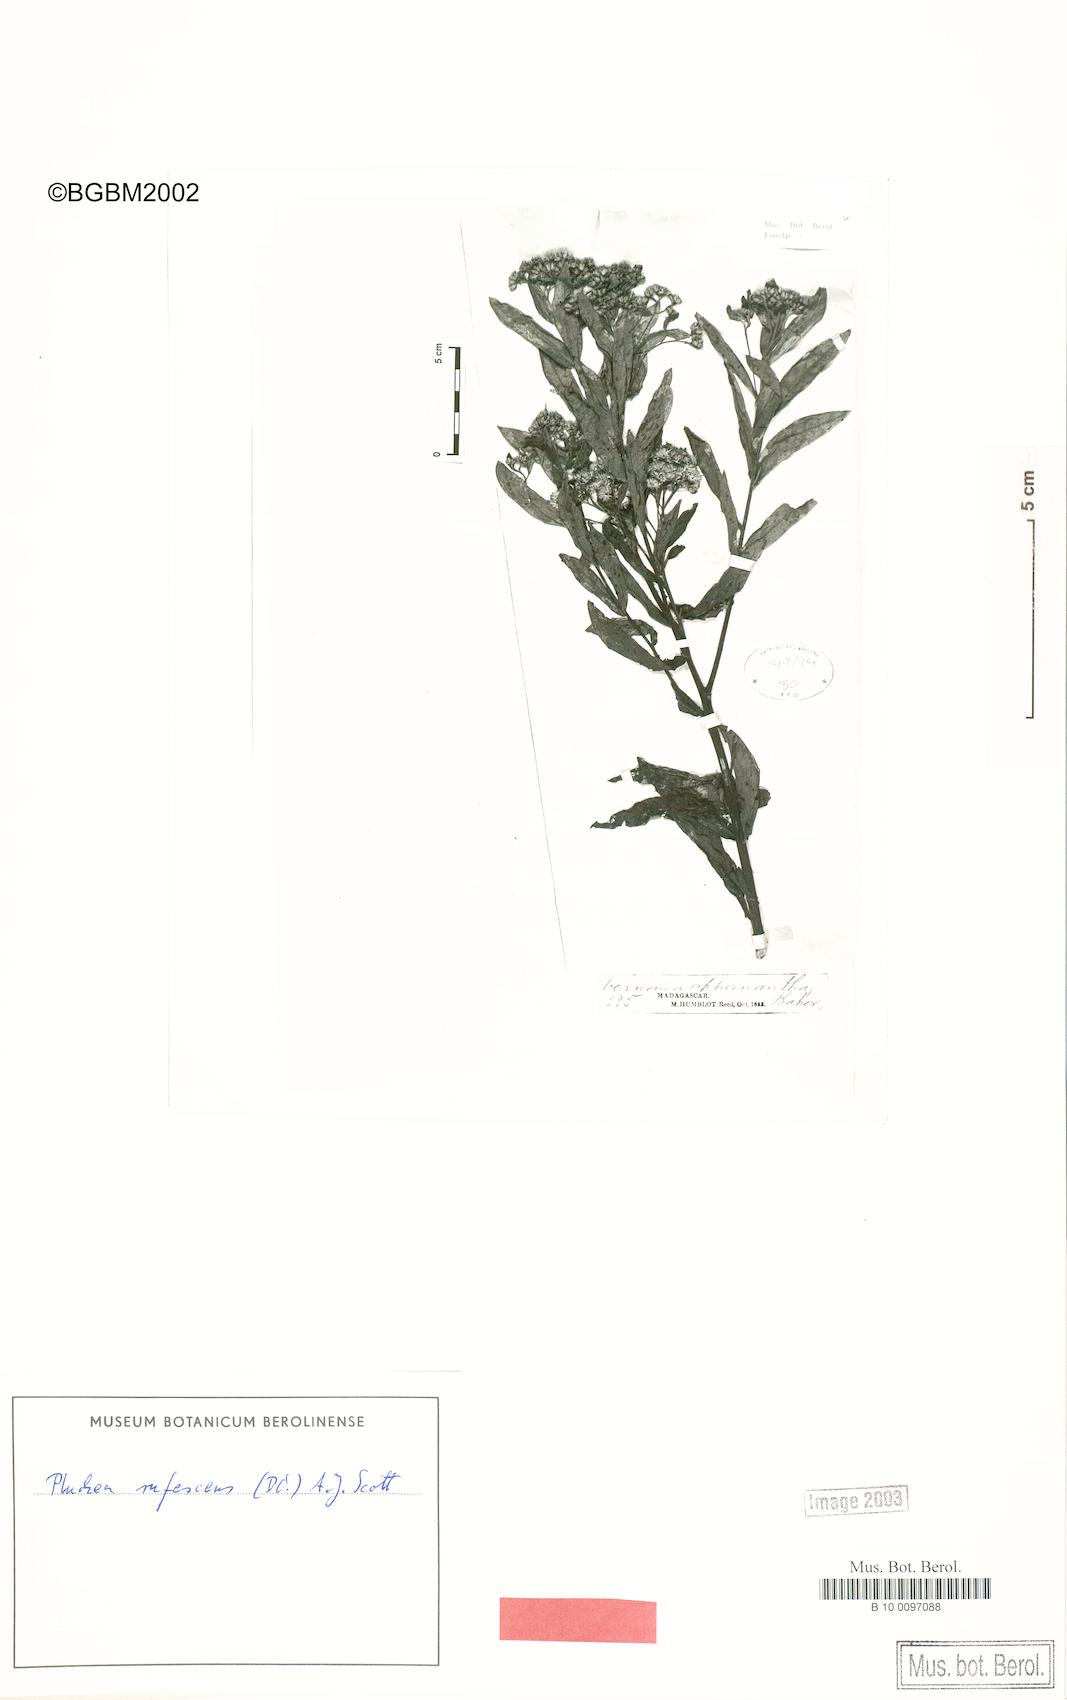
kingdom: Plantae
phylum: Tracheophyta
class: Magnoliopsida
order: Asterales
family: Asteraceae
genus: Pluchea
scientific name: Pluchea rufescens
